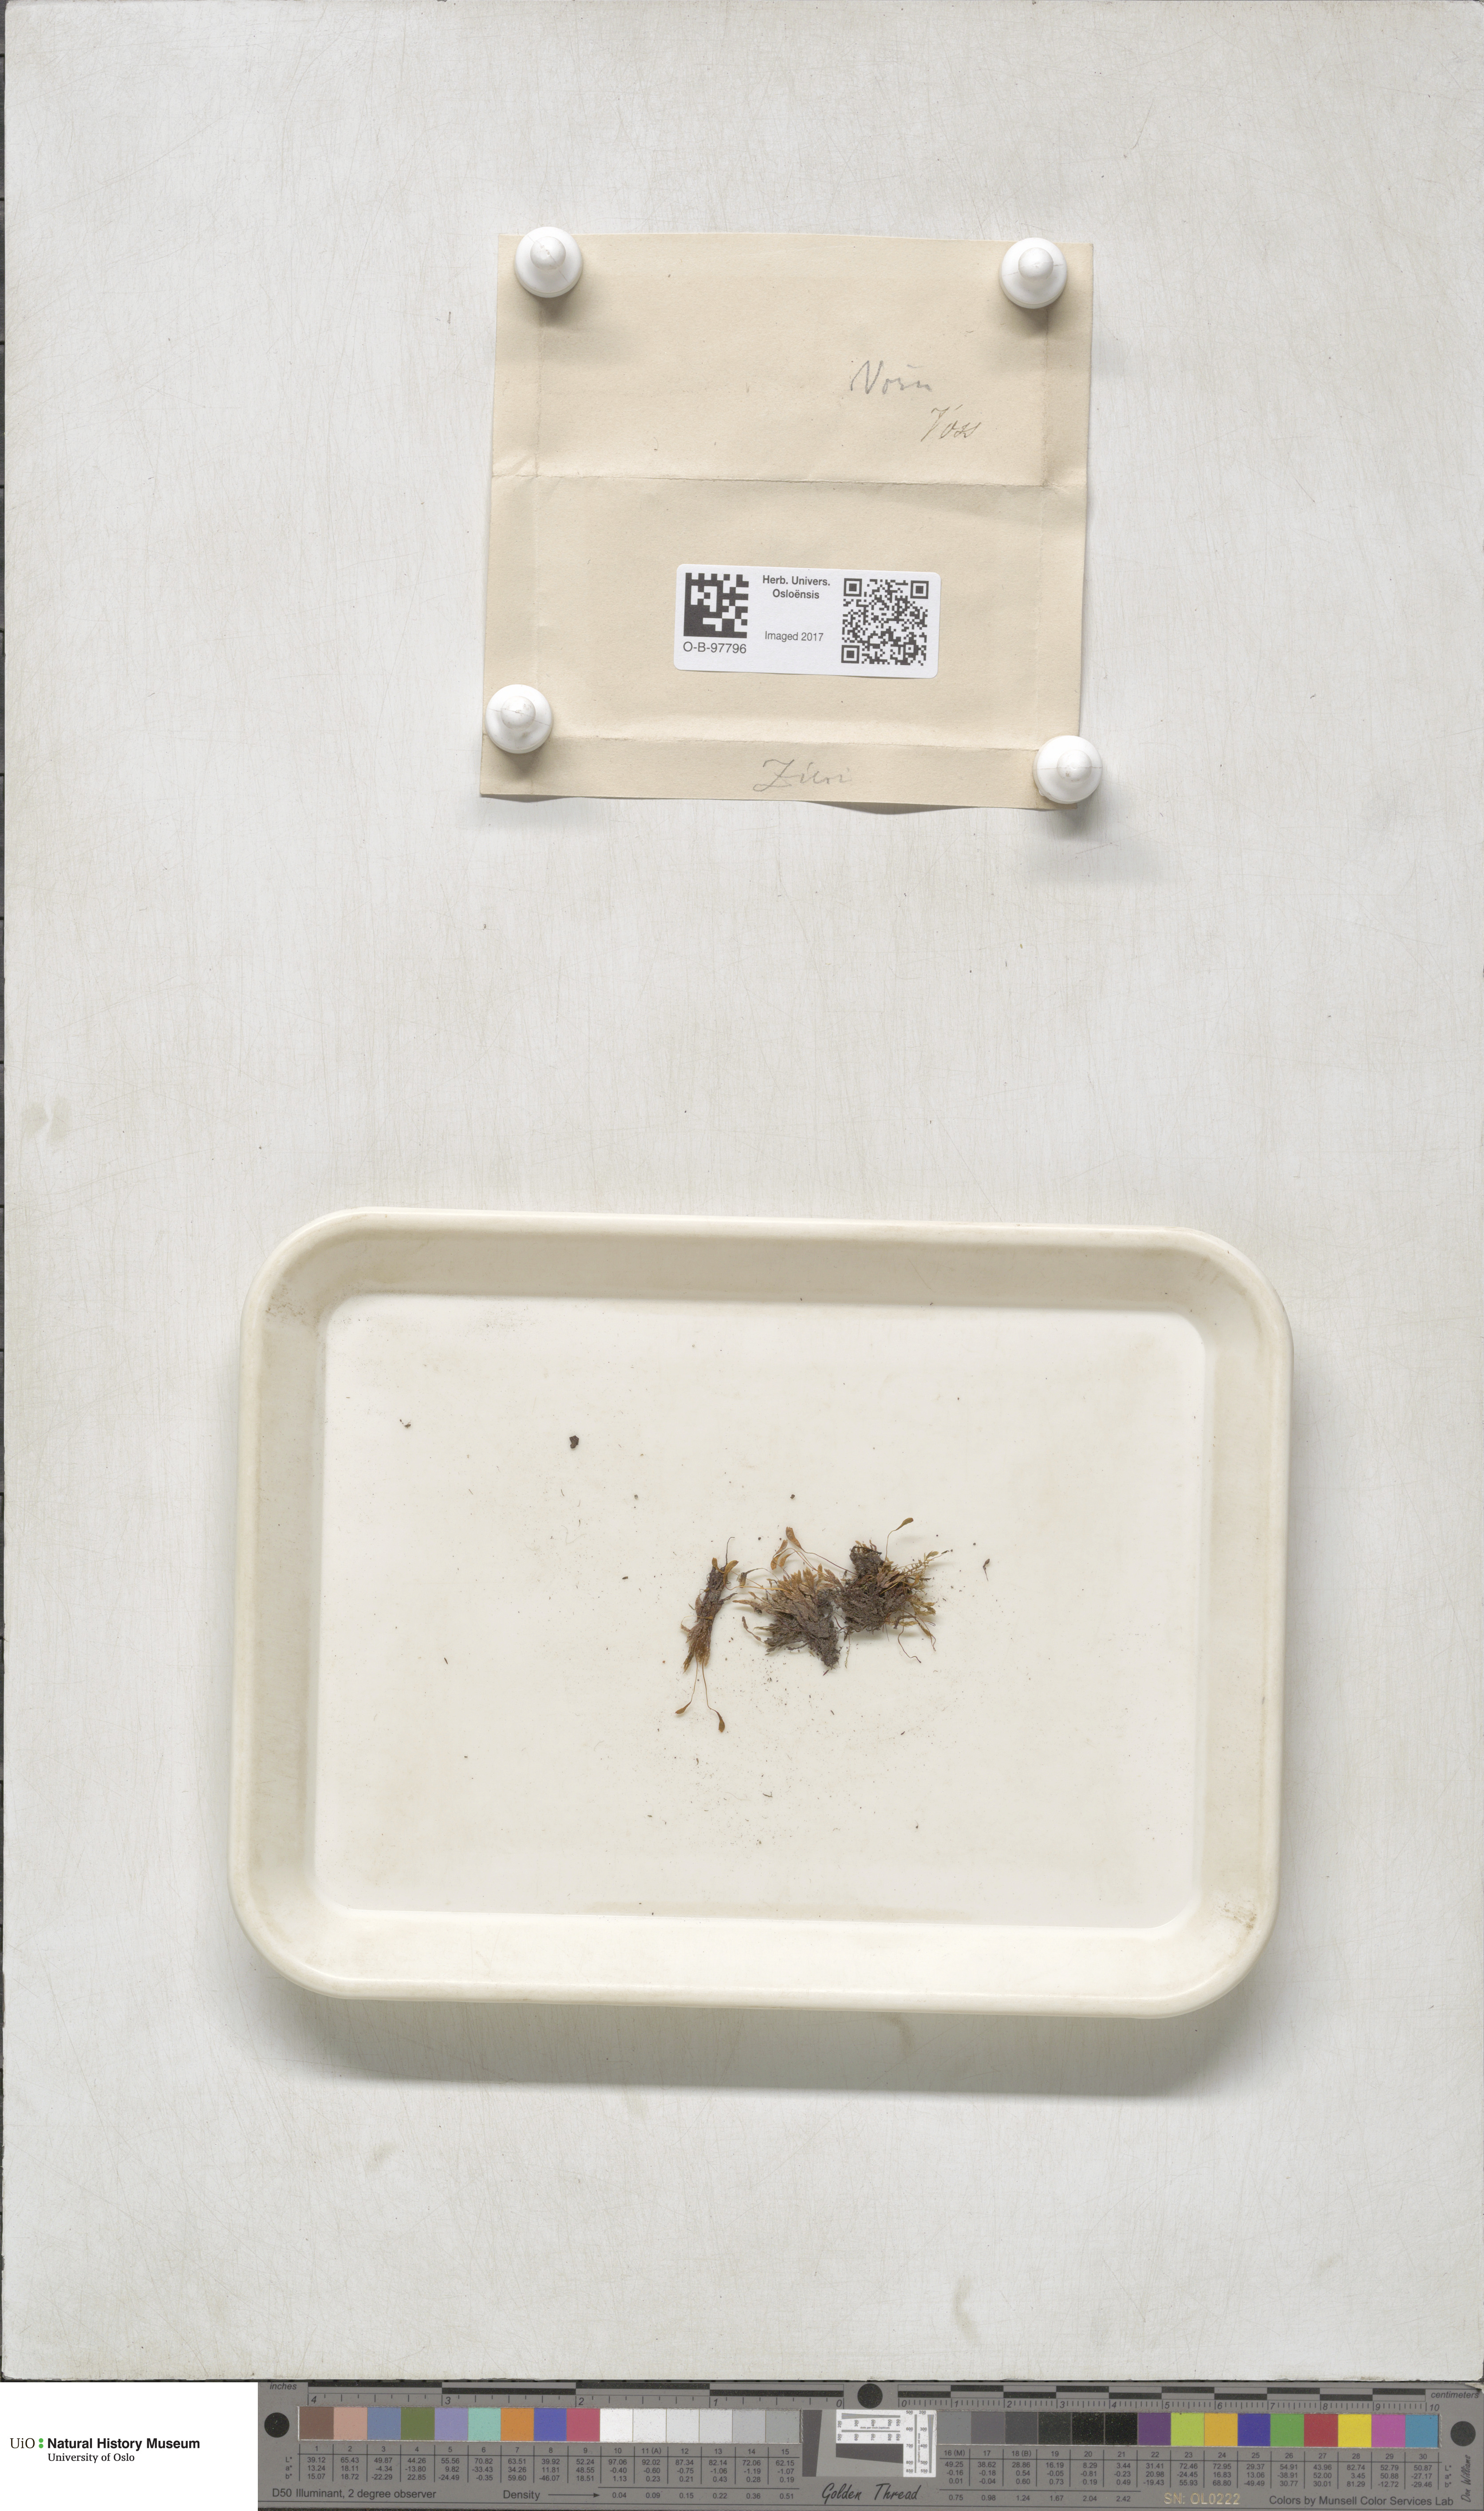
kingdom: Plantae
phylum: Bryophyta
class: Bryopsida
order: Bryales
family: Bryaceae
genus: Plagiobryum
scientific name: Plagiobryum zieri
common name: Zier's hump moss
